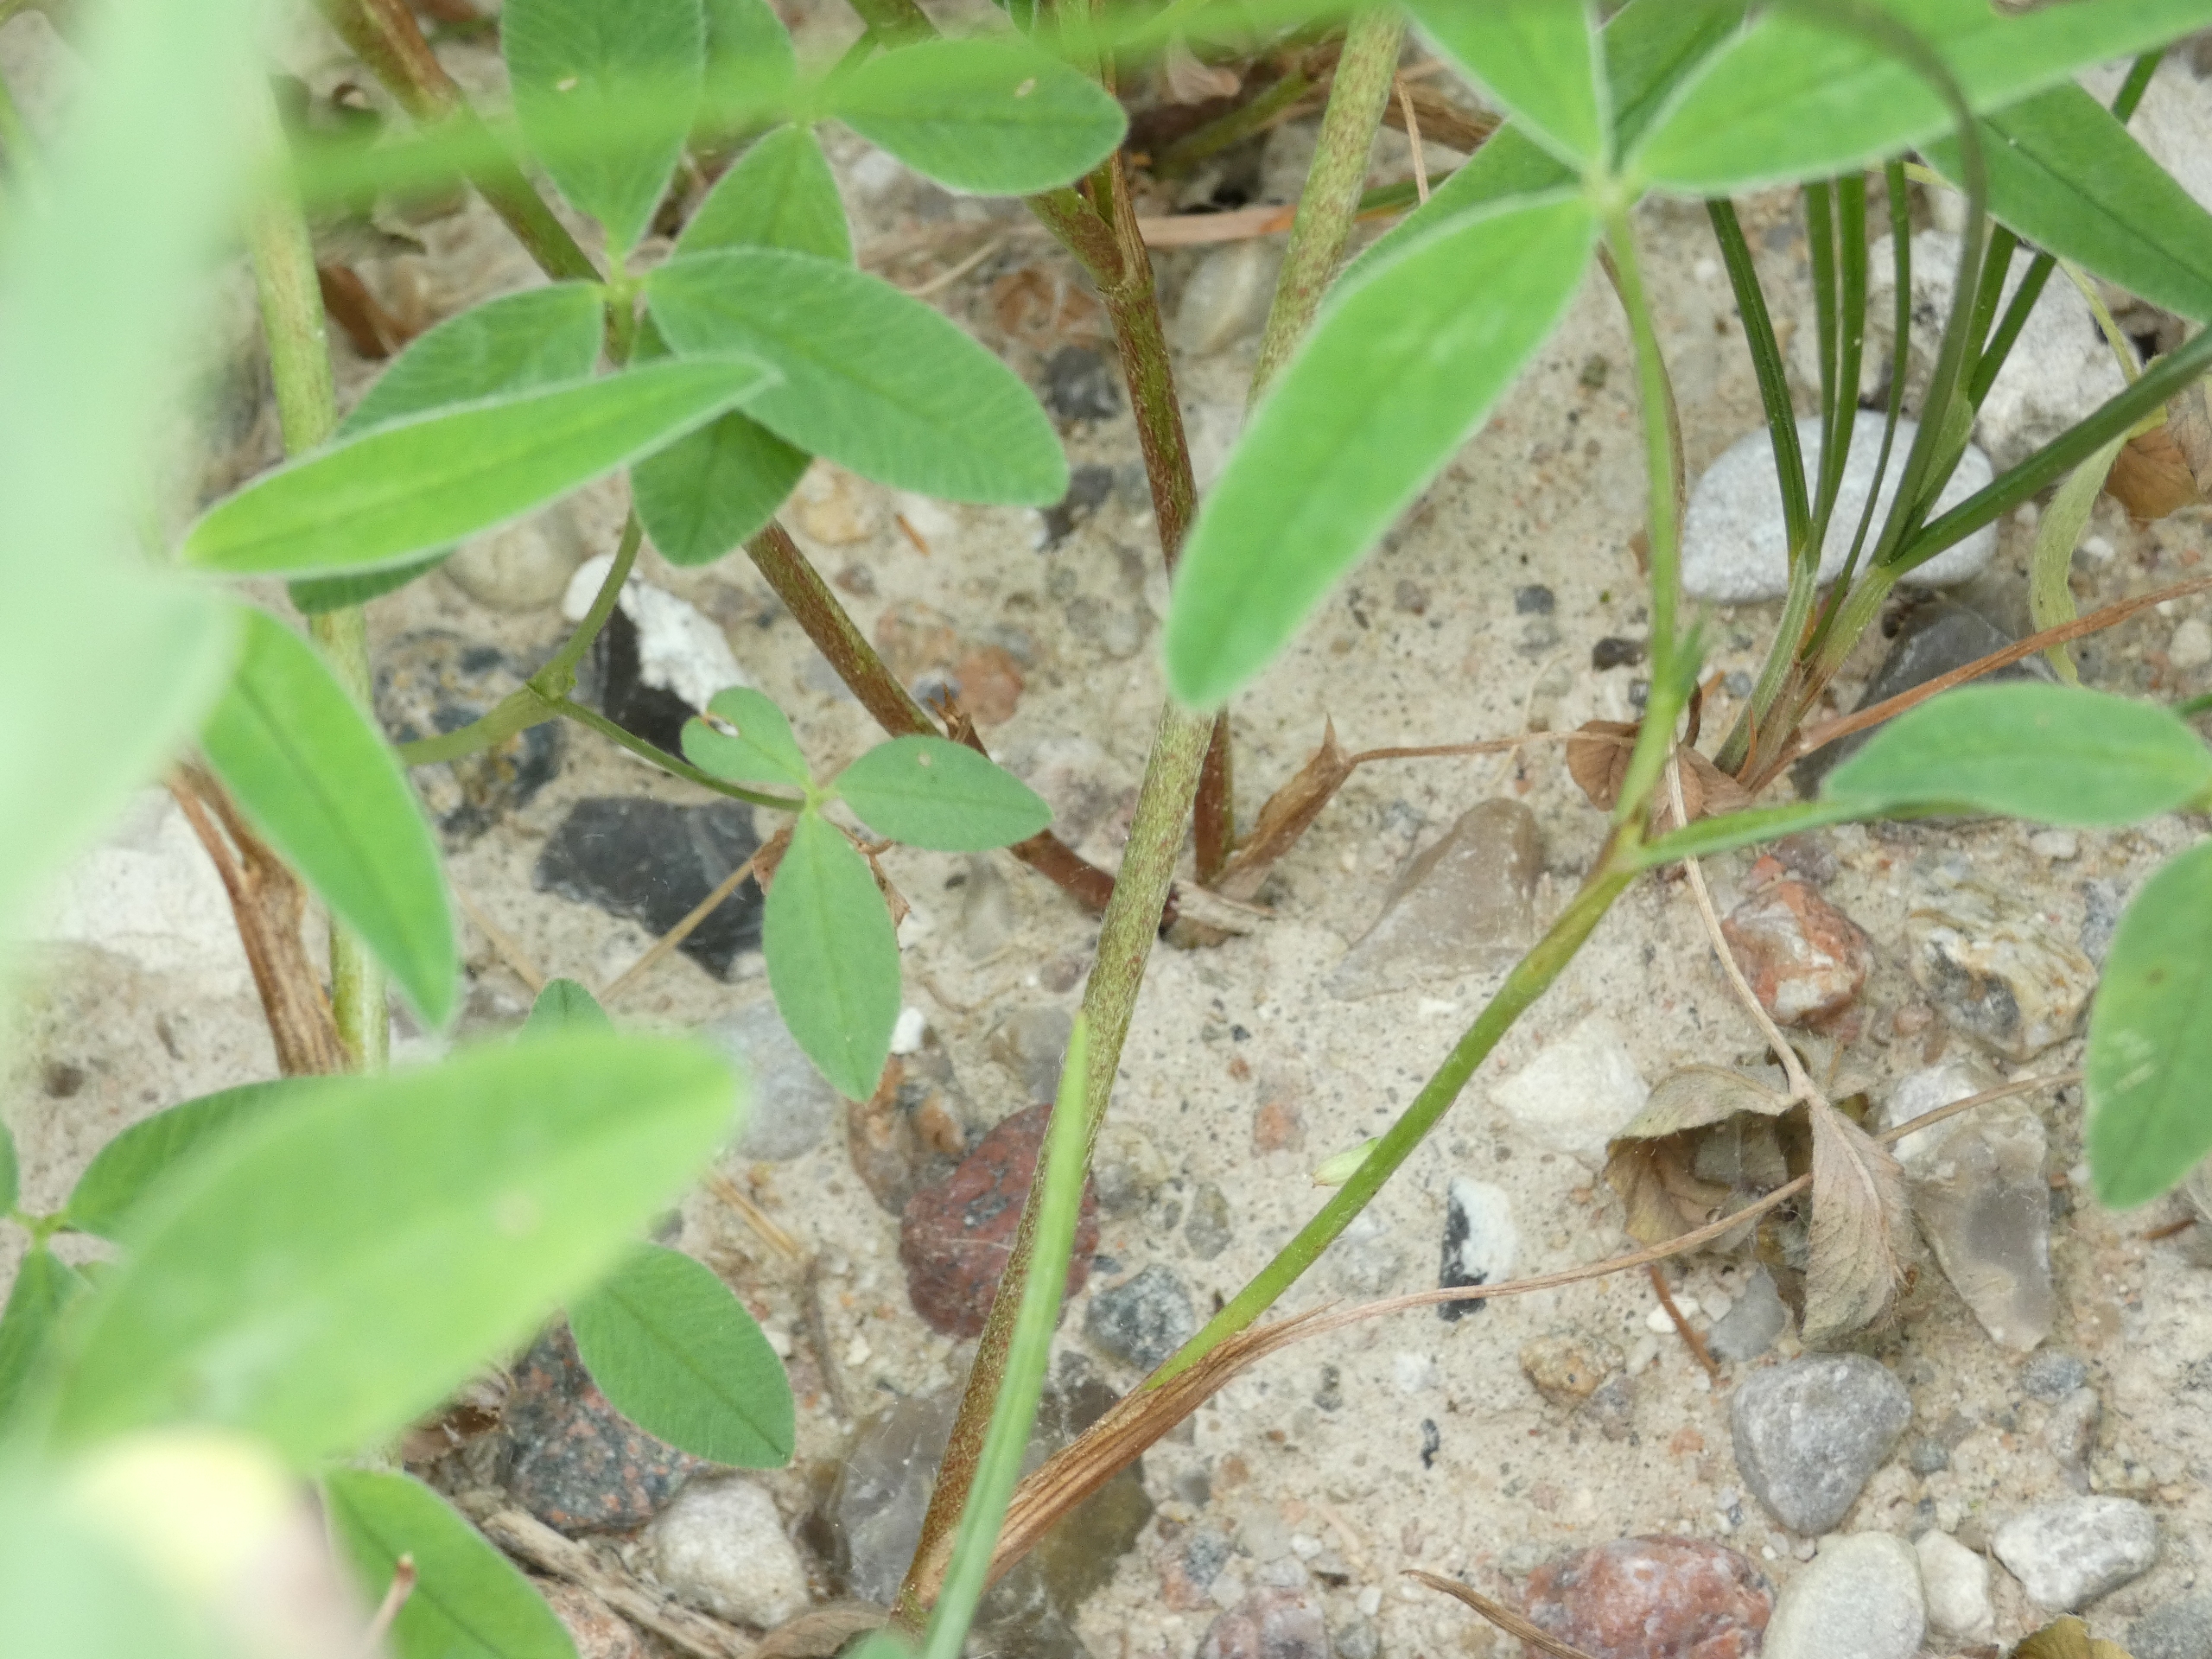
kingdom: Plantae
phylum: Tracheophyta
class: Magnoliopsida
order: Fabales
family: Fabaceae
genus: Trifolium
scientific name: Trifolium medium
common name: Bugtet kløver
